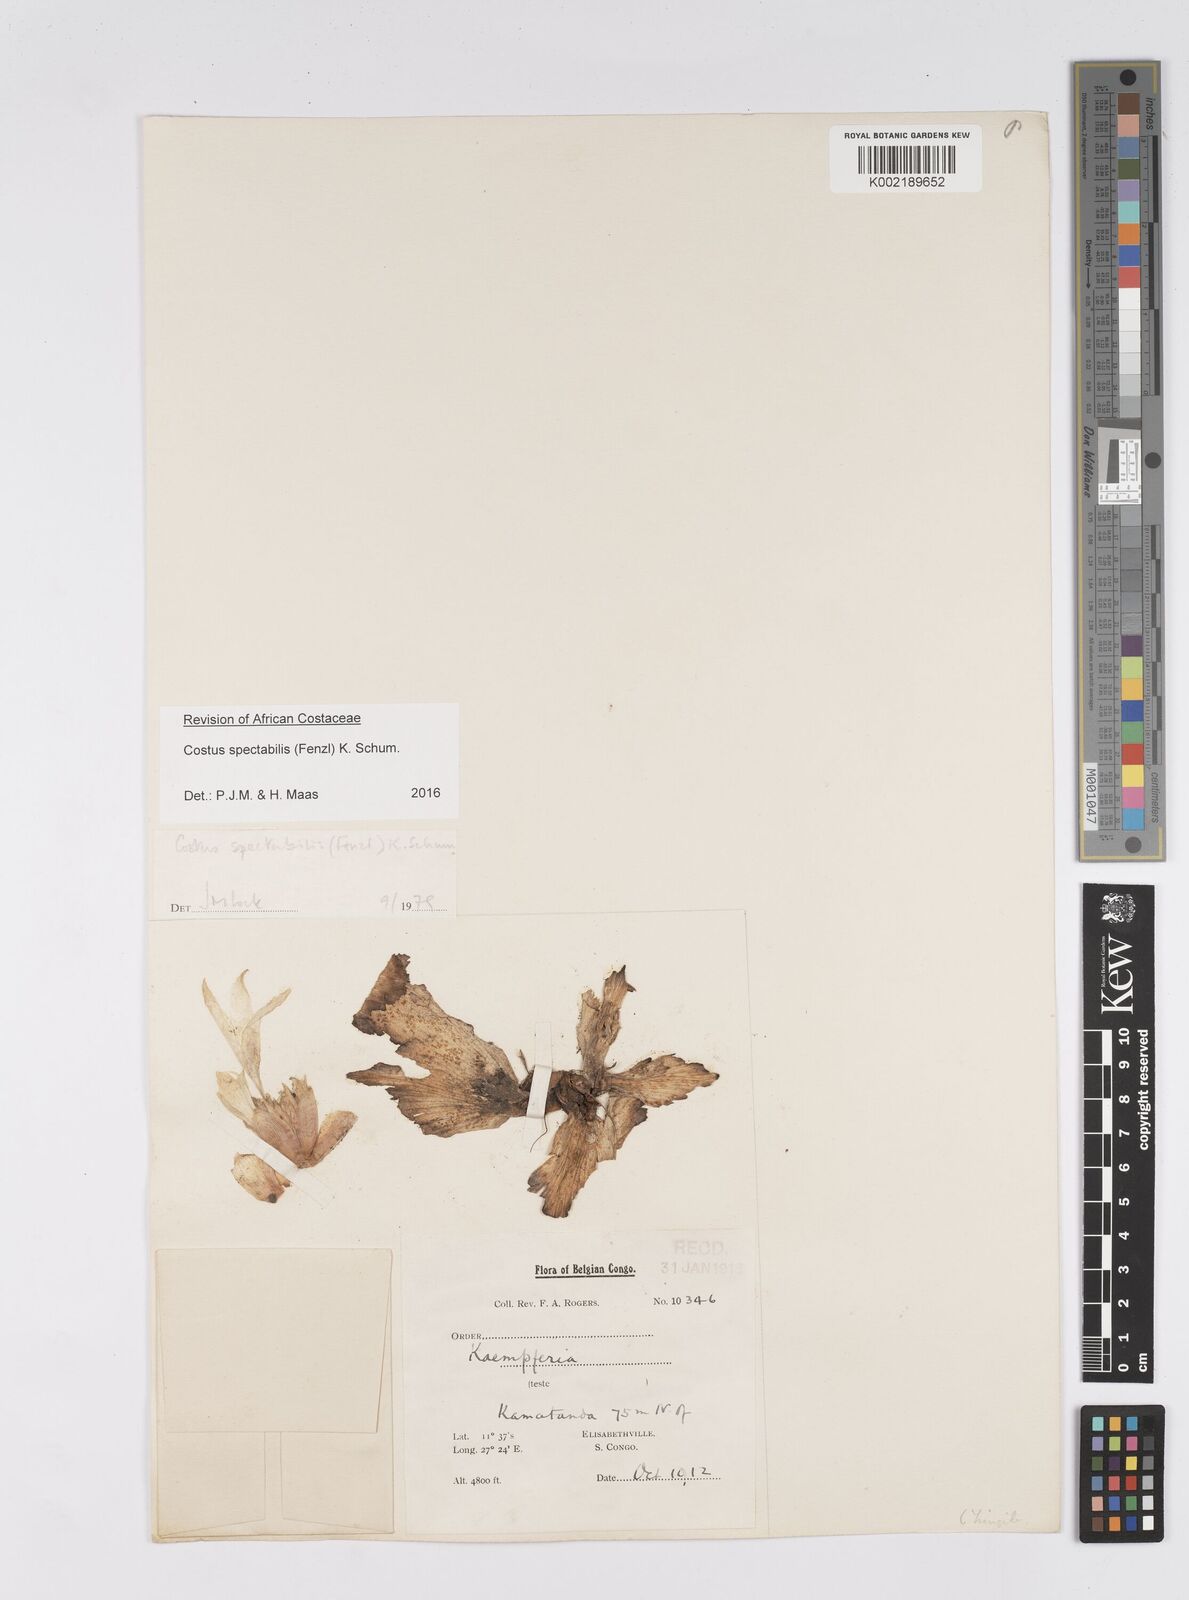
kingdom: Plantae
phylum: Tracheophyta
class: Liliopsida
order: Zingiberales
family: Costaceae
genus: Costus
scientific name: Costus spectabilis
